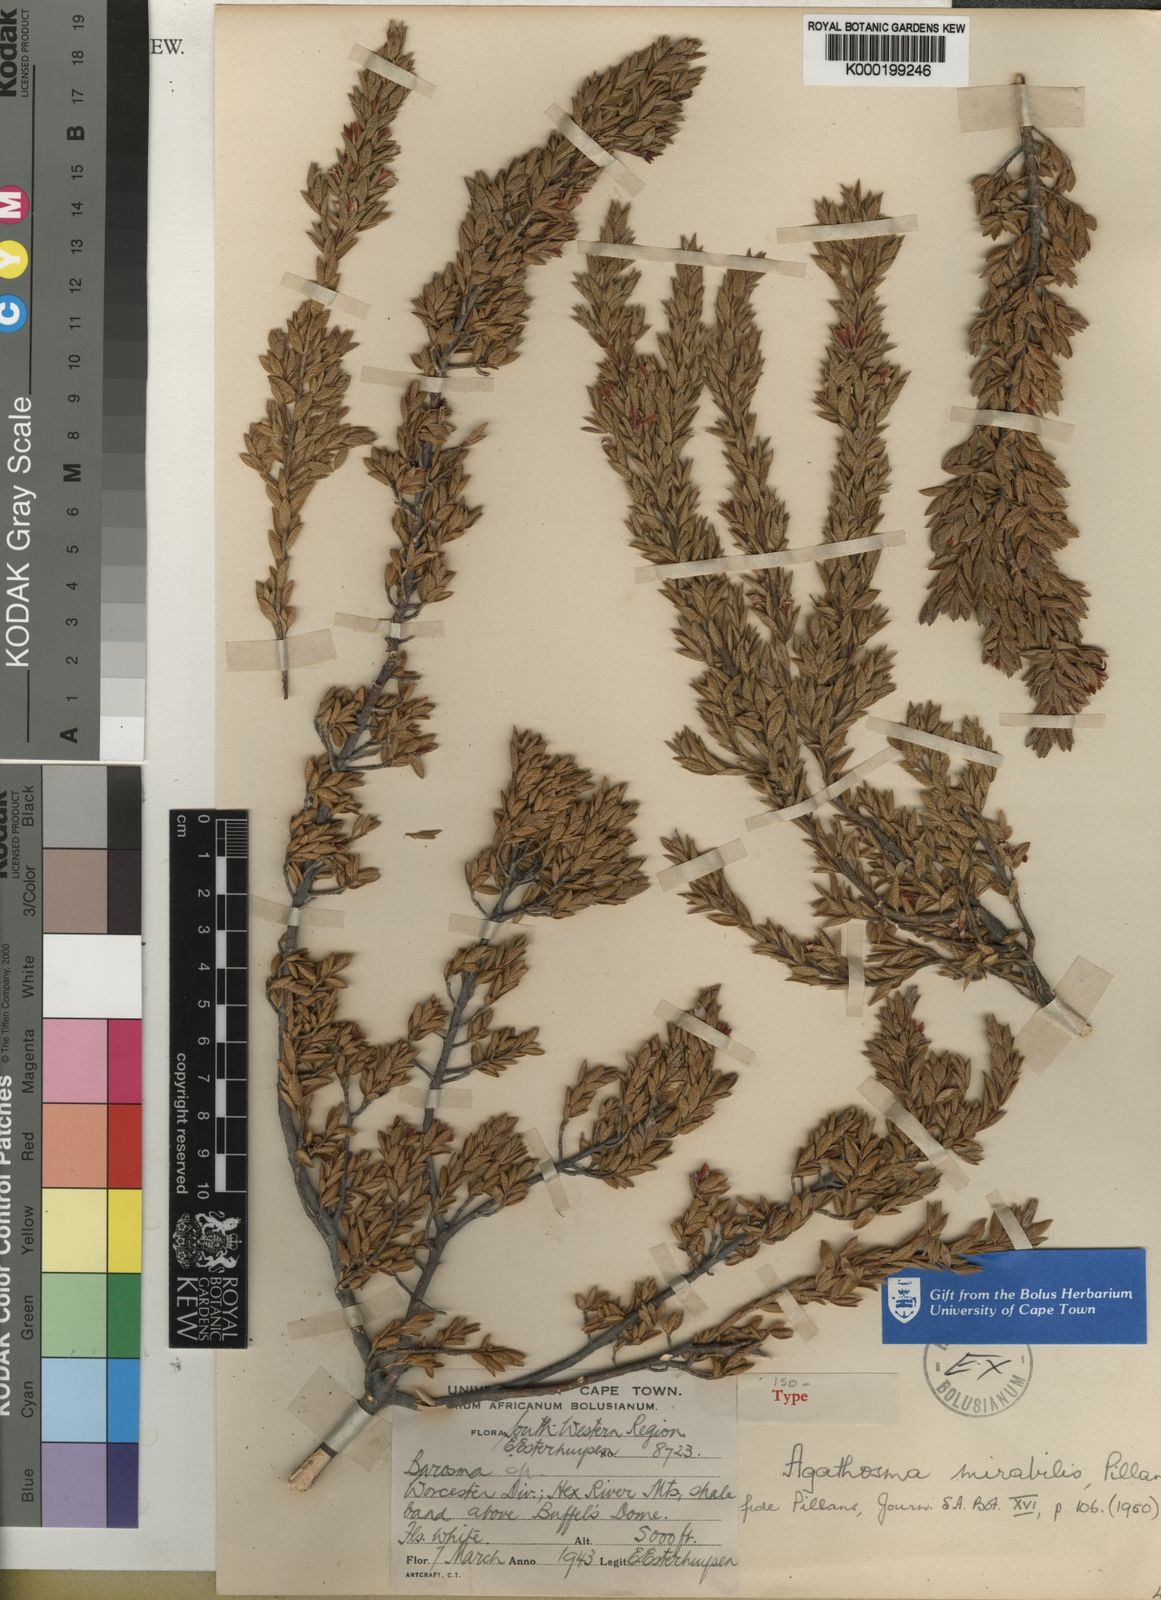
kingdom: Plantae
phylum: Tracheophyta
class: Magnoliopsida
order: Sapindales
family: Rutaceae
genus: Agathosma
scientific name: Agathosma mirabilis
